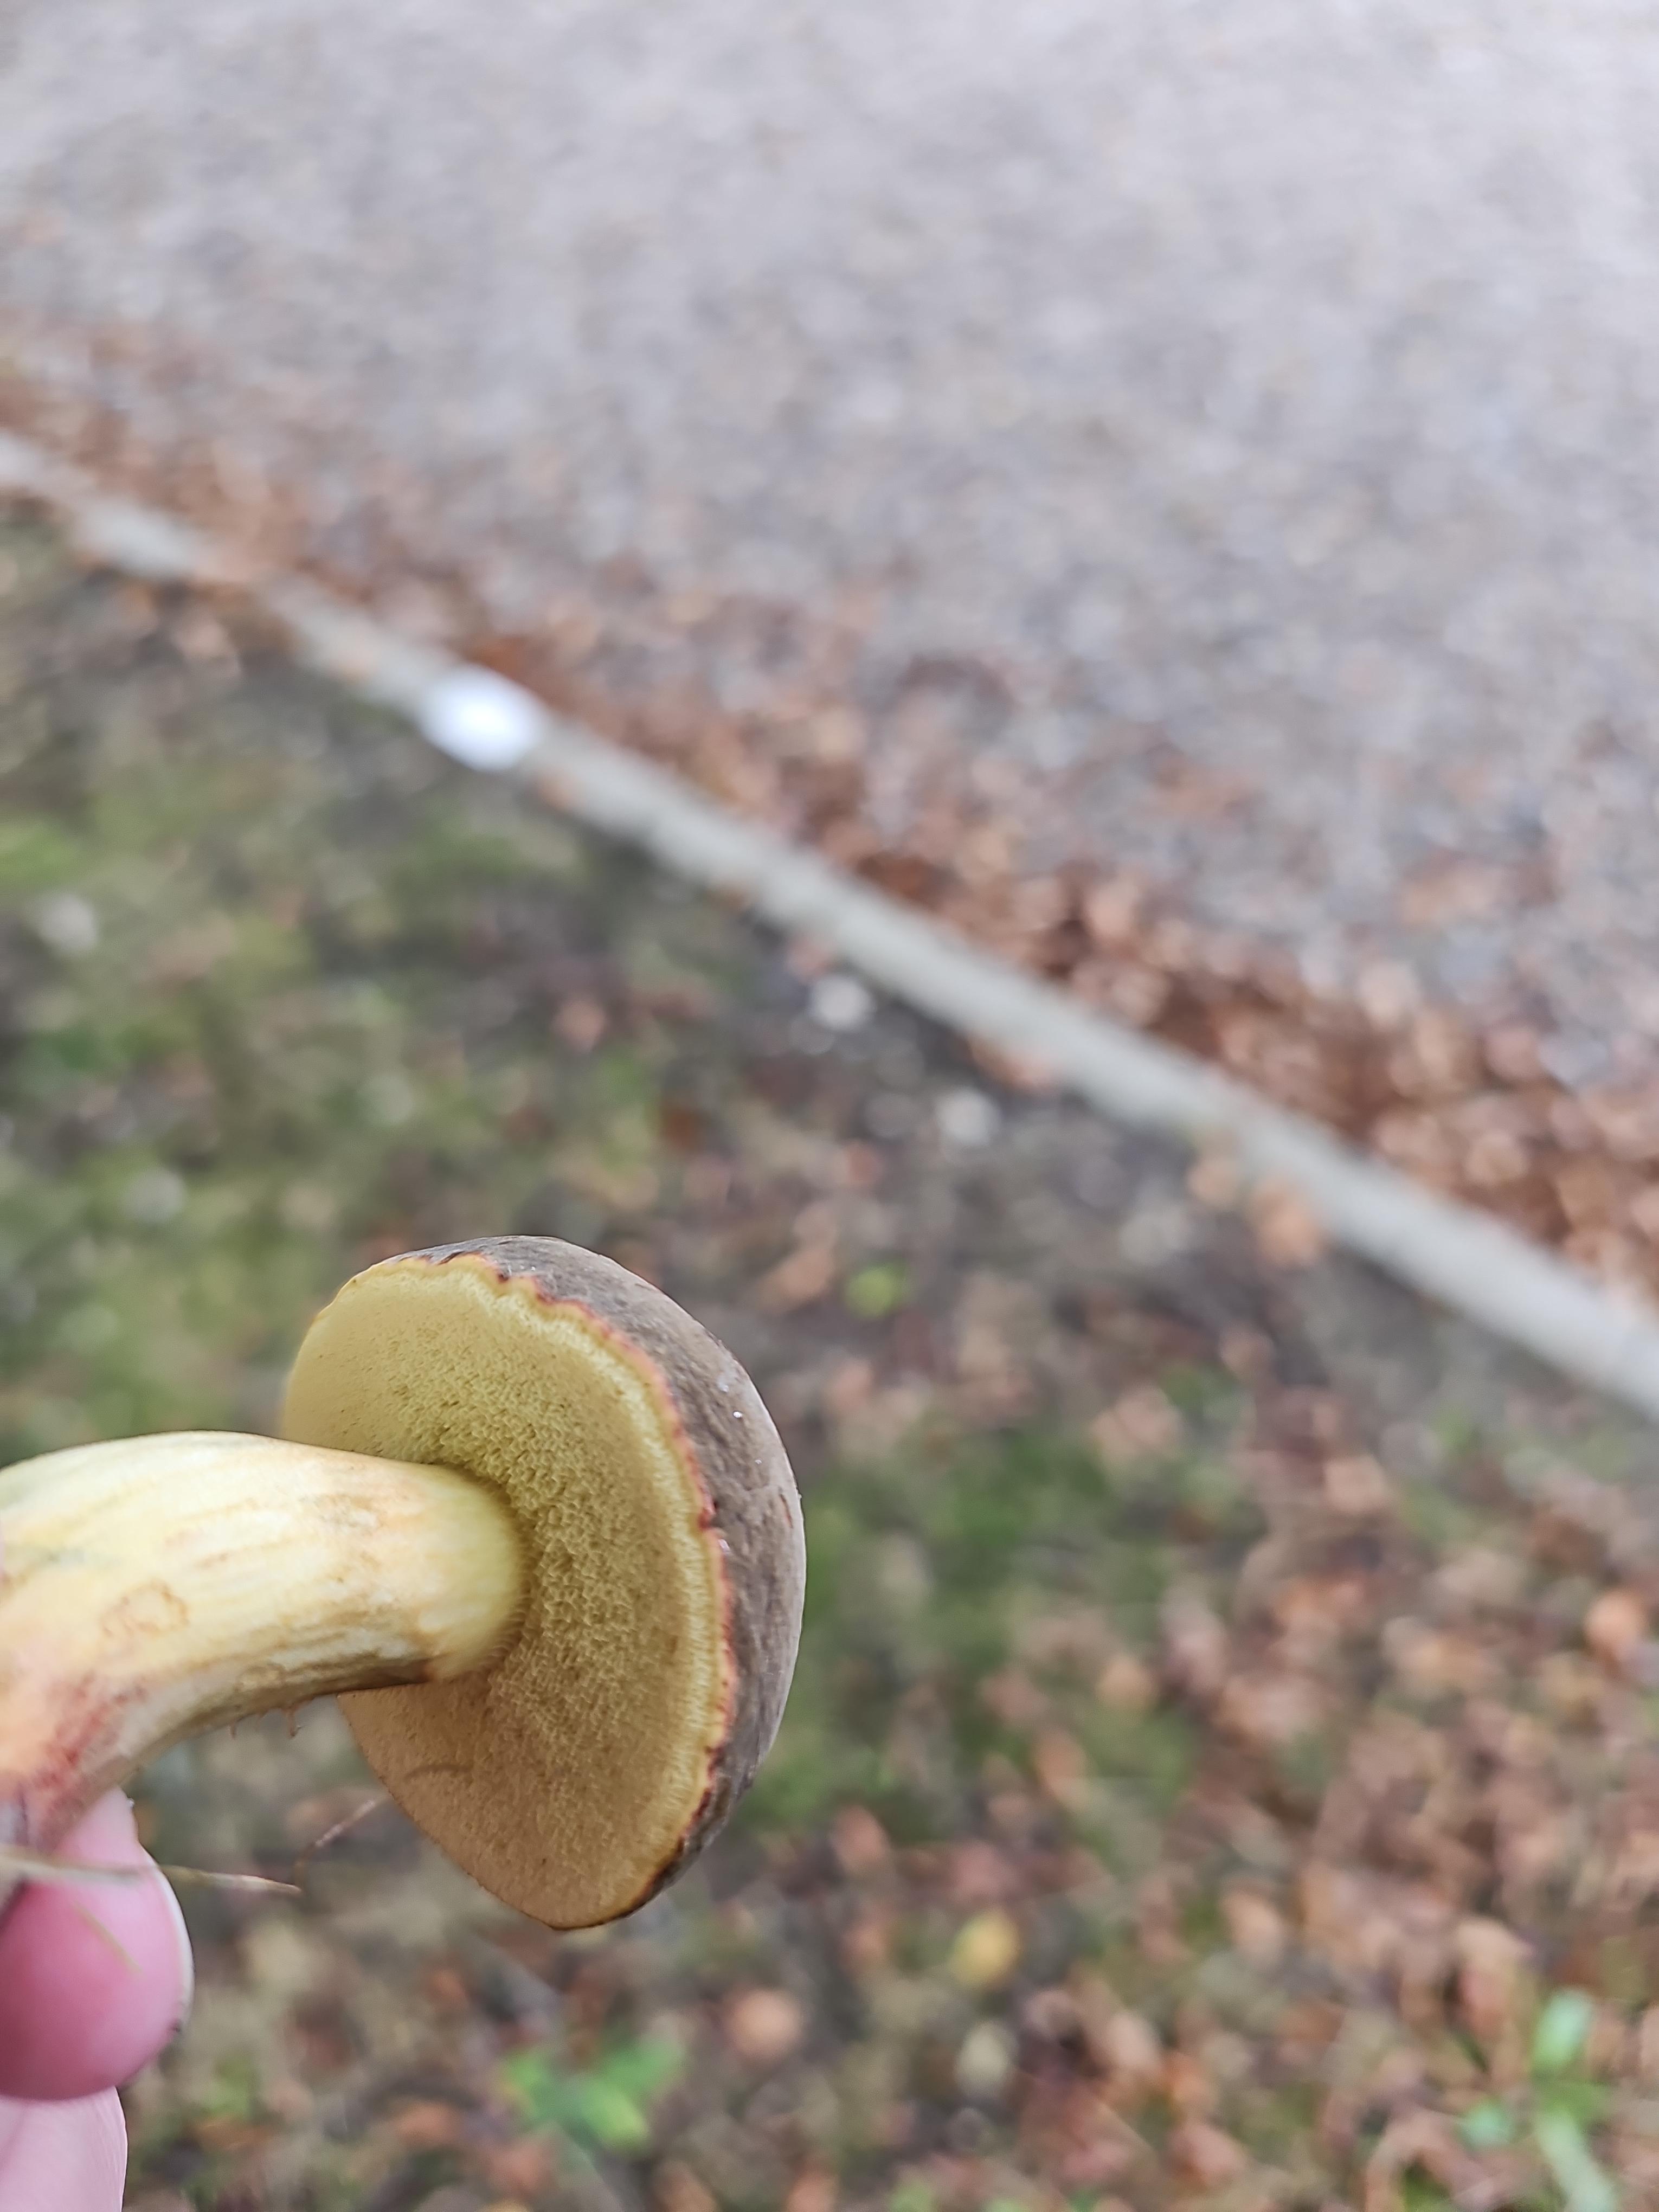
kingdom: Fungi
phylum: Basidiomycota
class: Agaricomycetes
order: Boletales
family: Boletaceae
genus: Xerocomellus
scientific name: Xerocomellus pruinatus
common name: dugget rørhat
